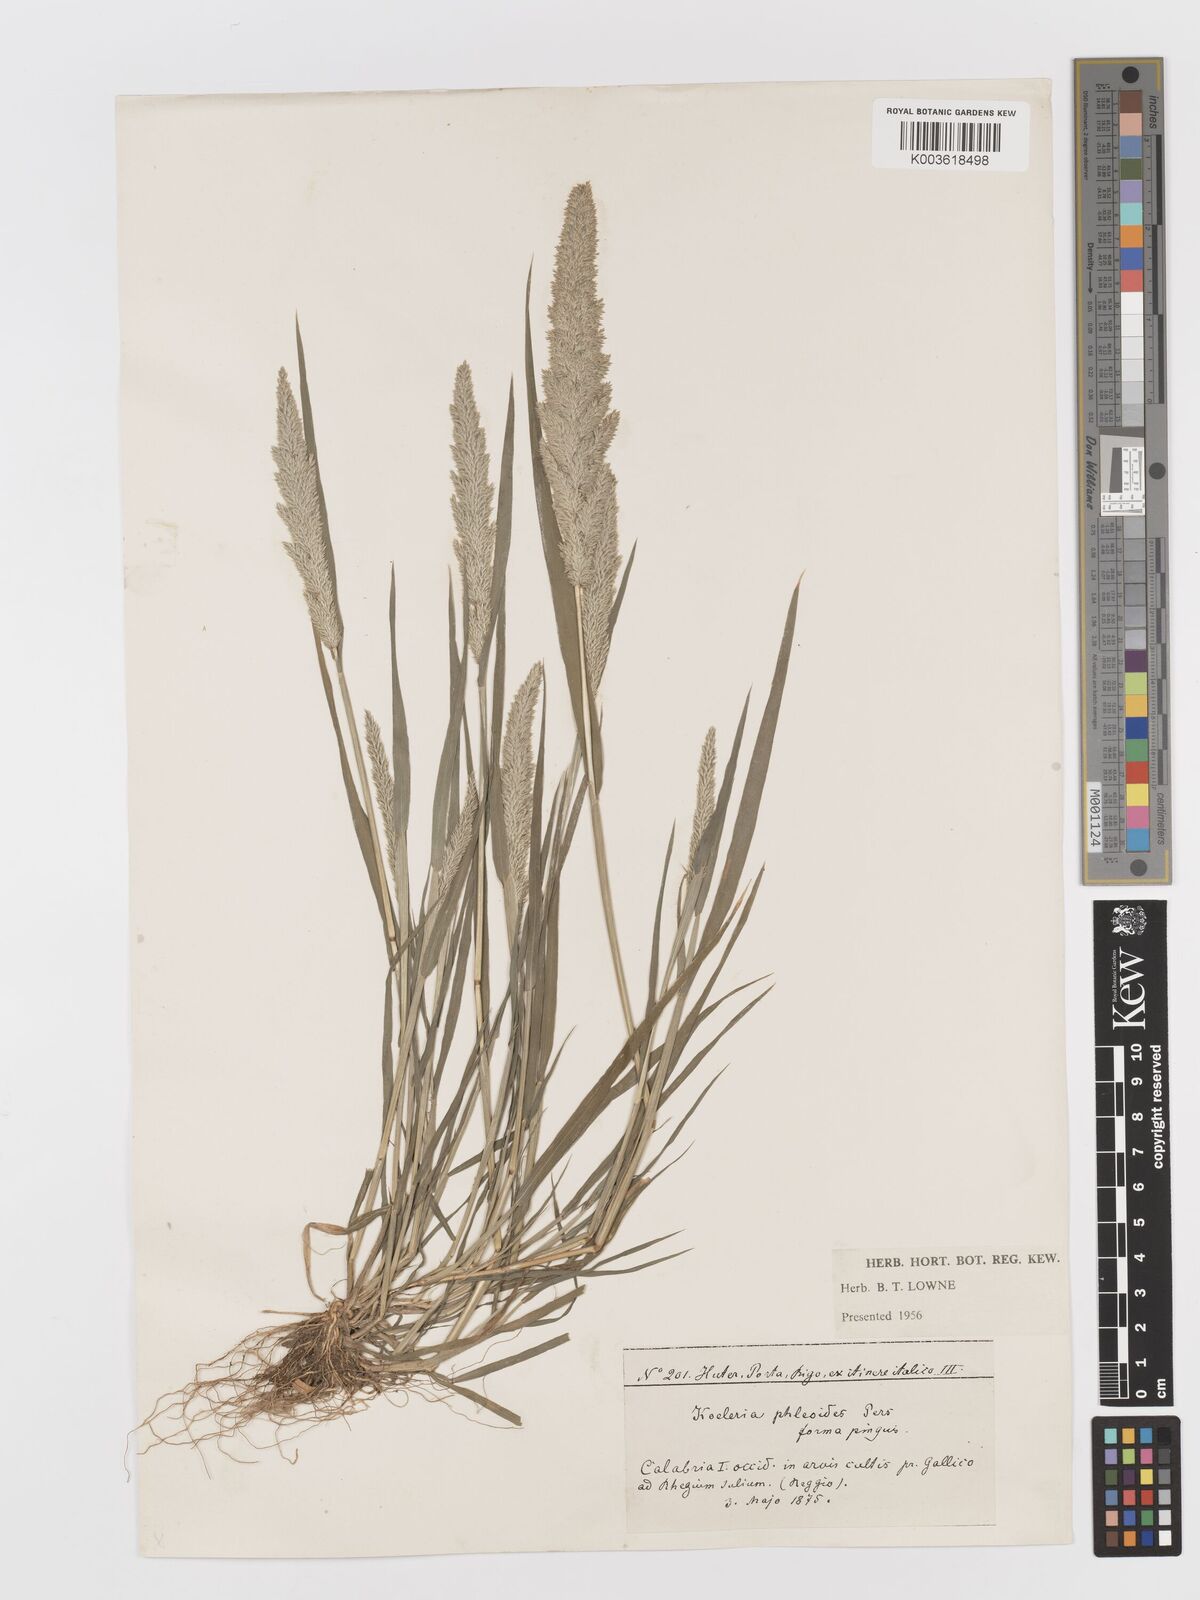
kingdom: Plantae
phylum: Tracheophyta
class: Liliopsida
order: Poales
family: Poaceae
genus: Rostraria
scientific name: Rostraria cristata
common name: Mediterranean hair-grass
